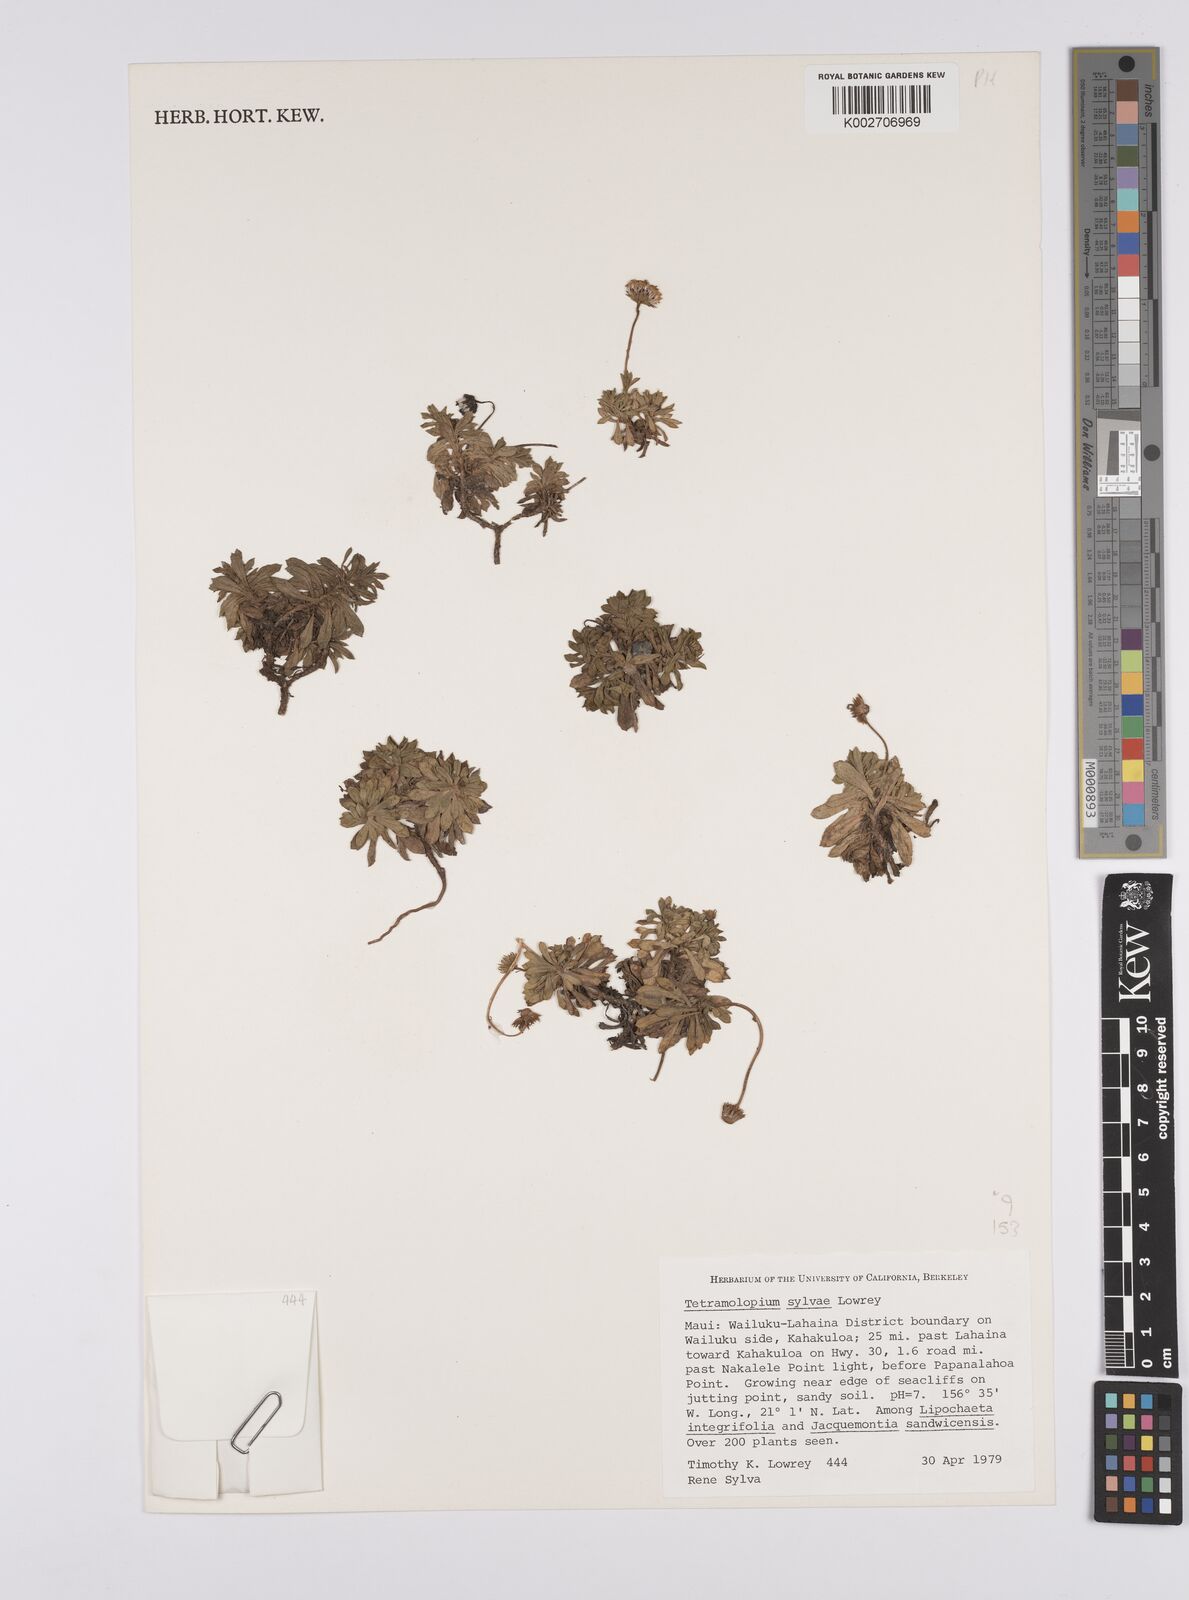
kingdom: Plantae
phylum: Tracheophyta
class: Magnoliopsida
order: Asterales
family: Asteraceae
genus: Tetramolopium
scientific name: Tetramolopium sylvae
